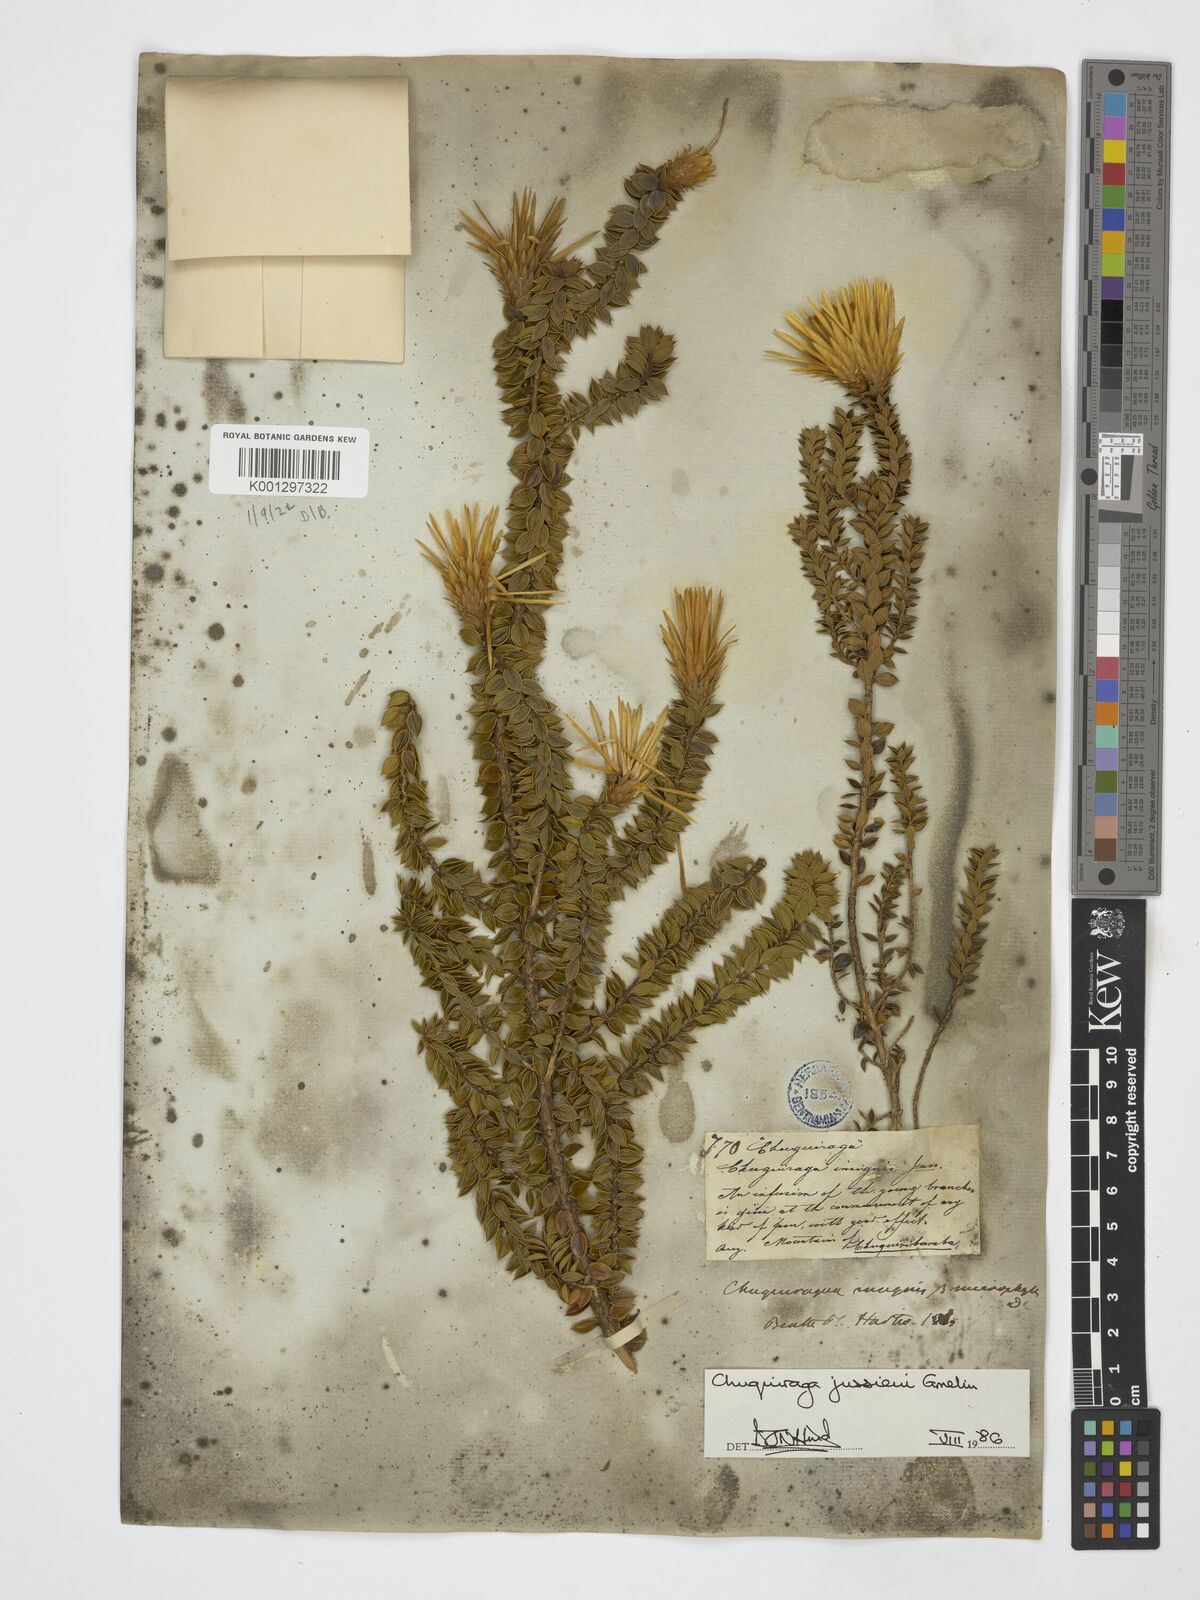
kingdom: Plantae
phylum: Tracheophyta
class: Magnoliopsida
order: Asterales
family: Asteraceae
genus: Chuquiraga
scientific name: Chuquiraga jussieui
